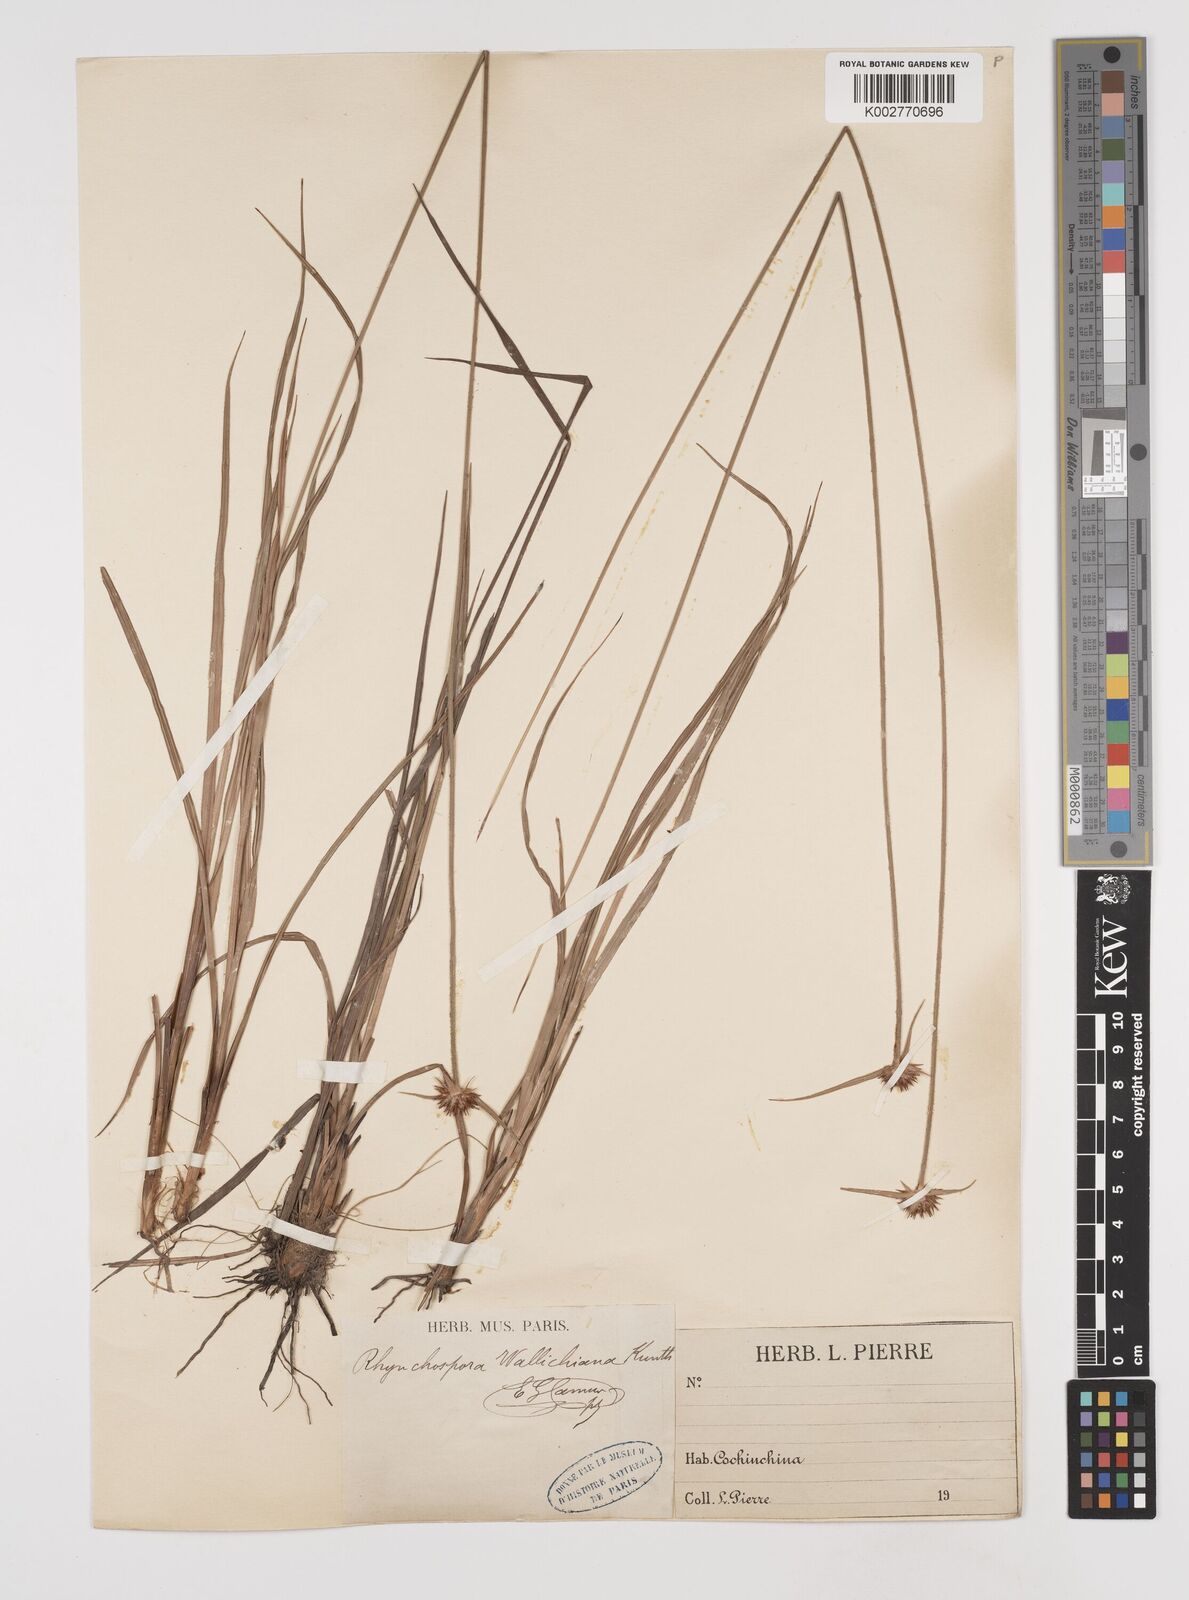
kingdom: Plantae
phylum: Tracheophyta
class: Liliopsida
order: Poales
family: Cyperaceae
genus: Rhynchospora
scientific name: Rhynchospora rubra
